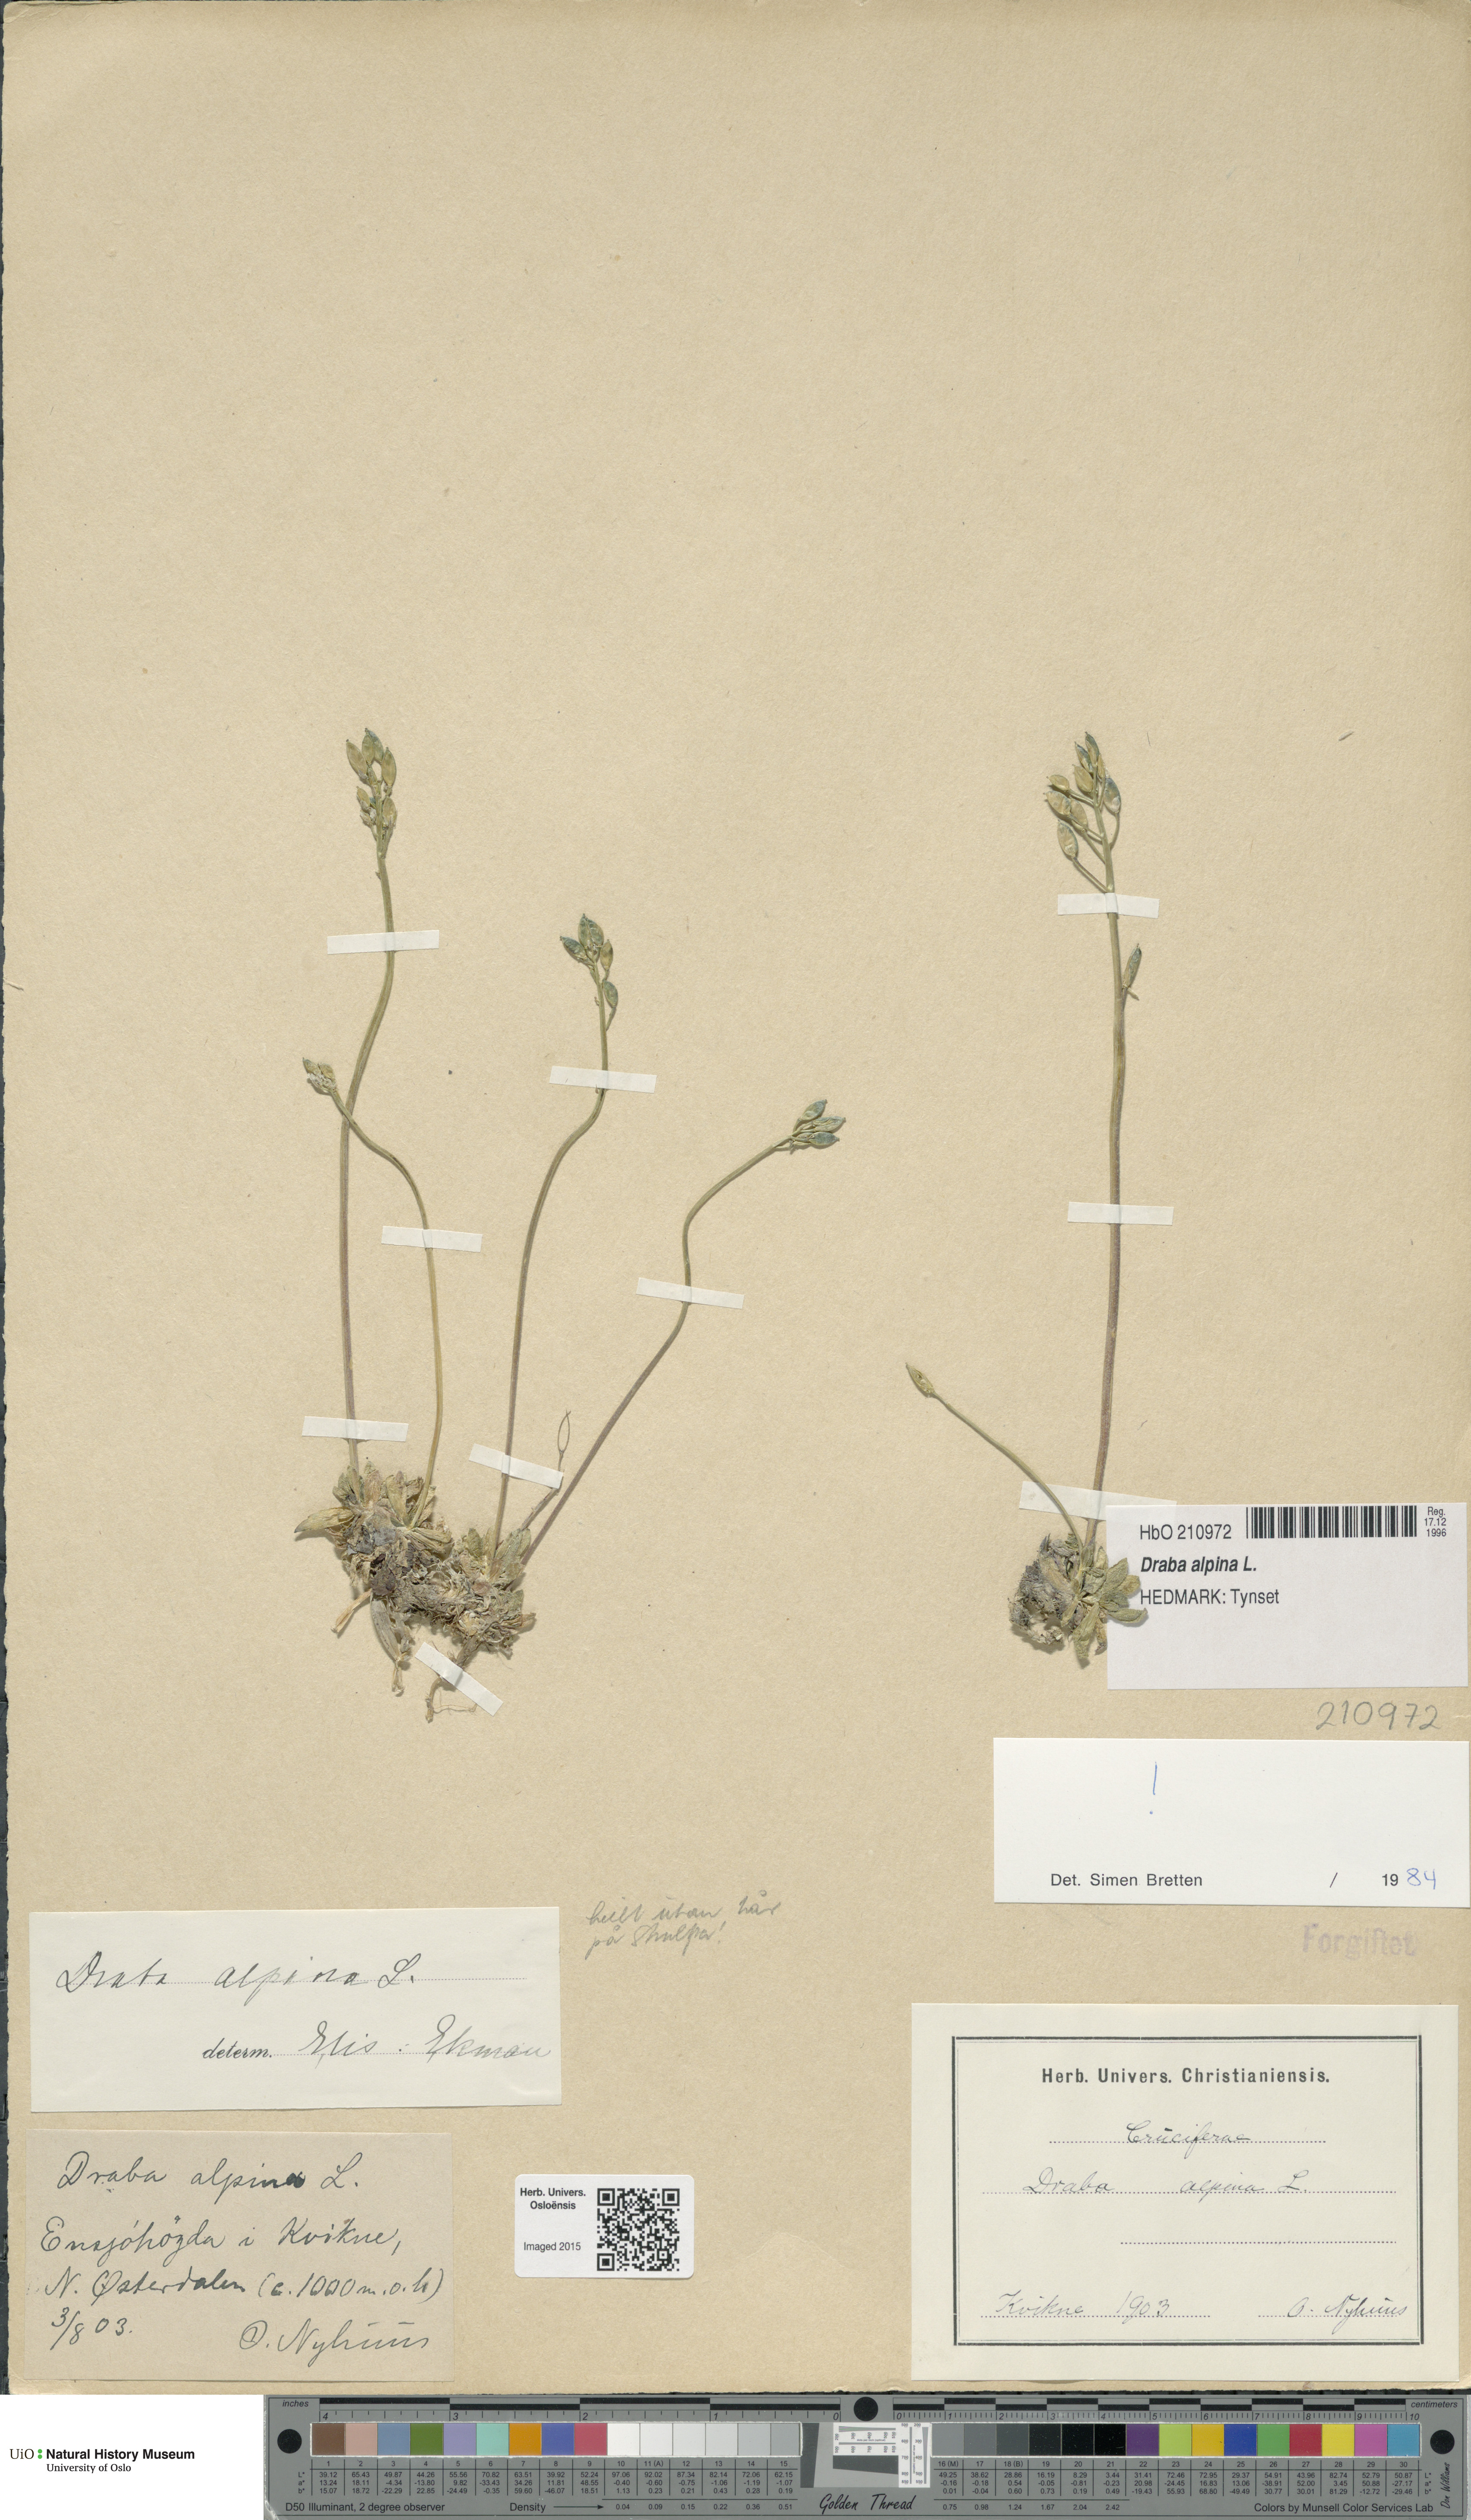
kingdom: Plantae
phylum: Tracheophyta
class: Magnoliopsida
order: Brassicales
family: Brassicaceae
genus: Draba
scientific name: Draba alpina
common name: Alpine draba
